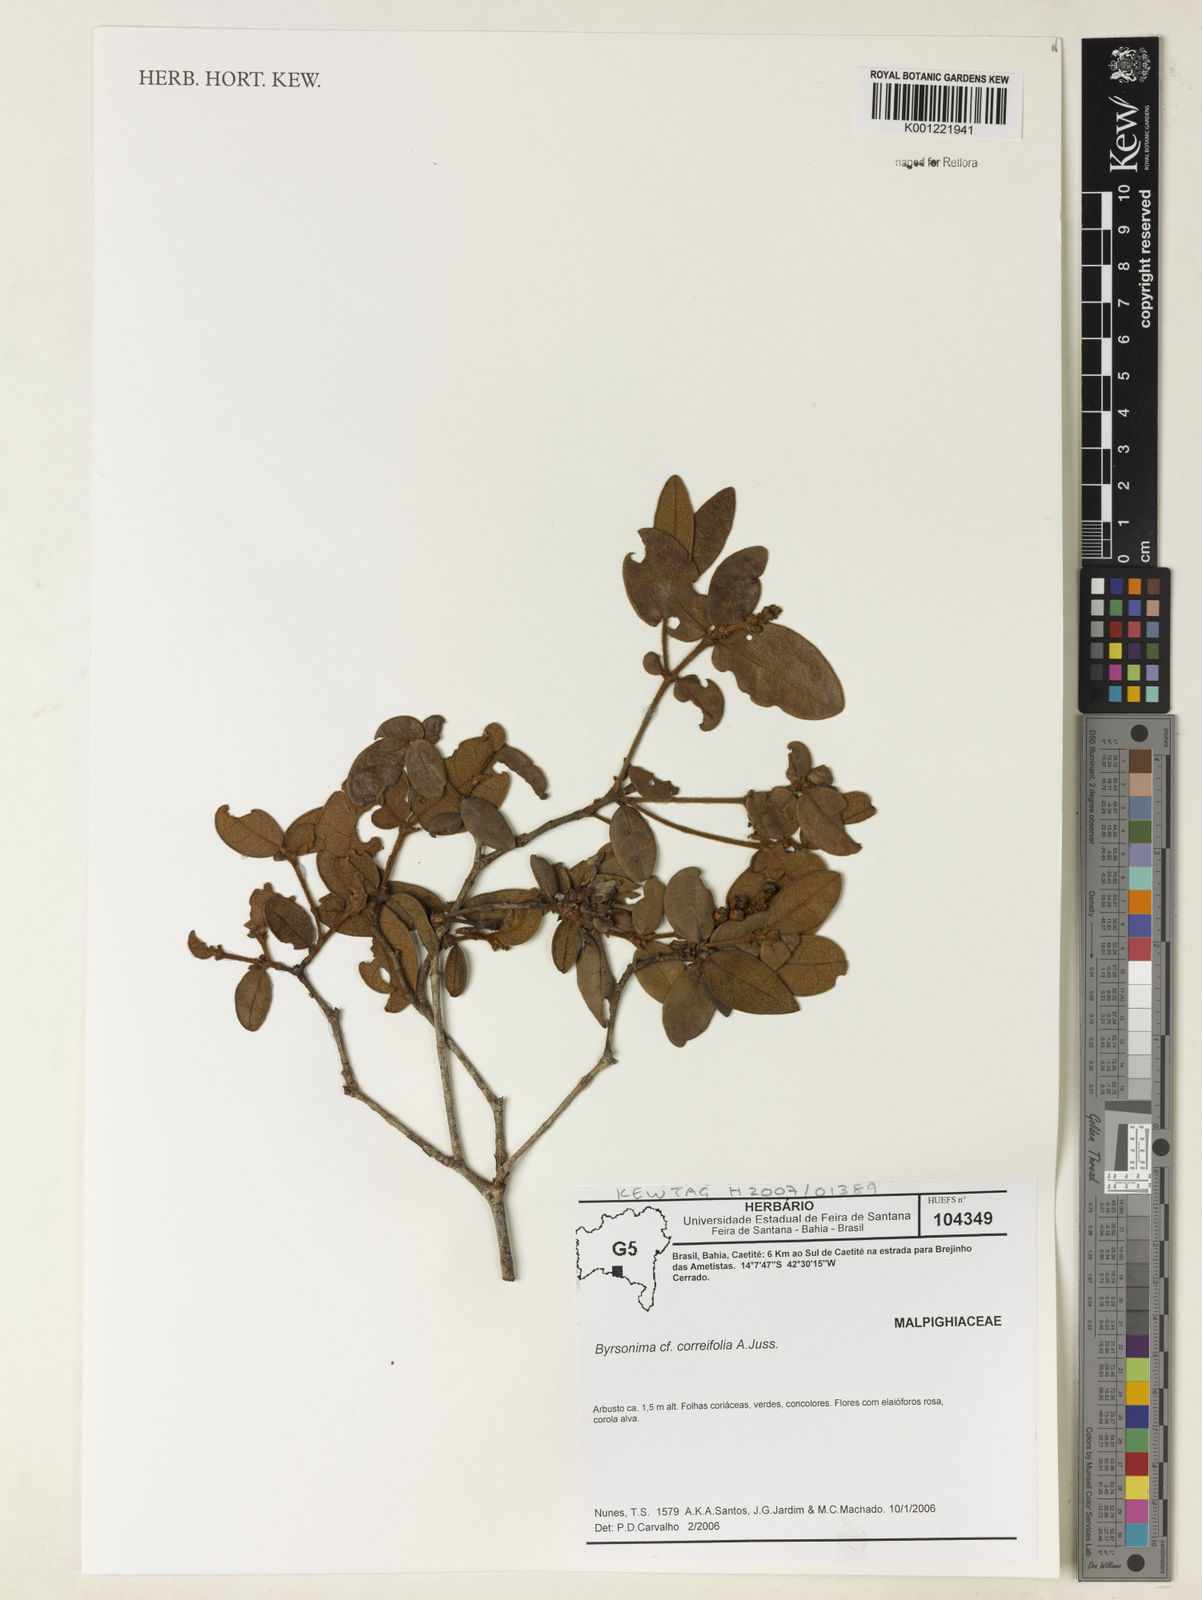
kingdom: Plantae
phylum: Tracheophyta
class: Magnoliopsida
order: Malpighiales
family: Malpighiaceae
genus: Byrsonima
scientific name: Byrsonima correifolia
